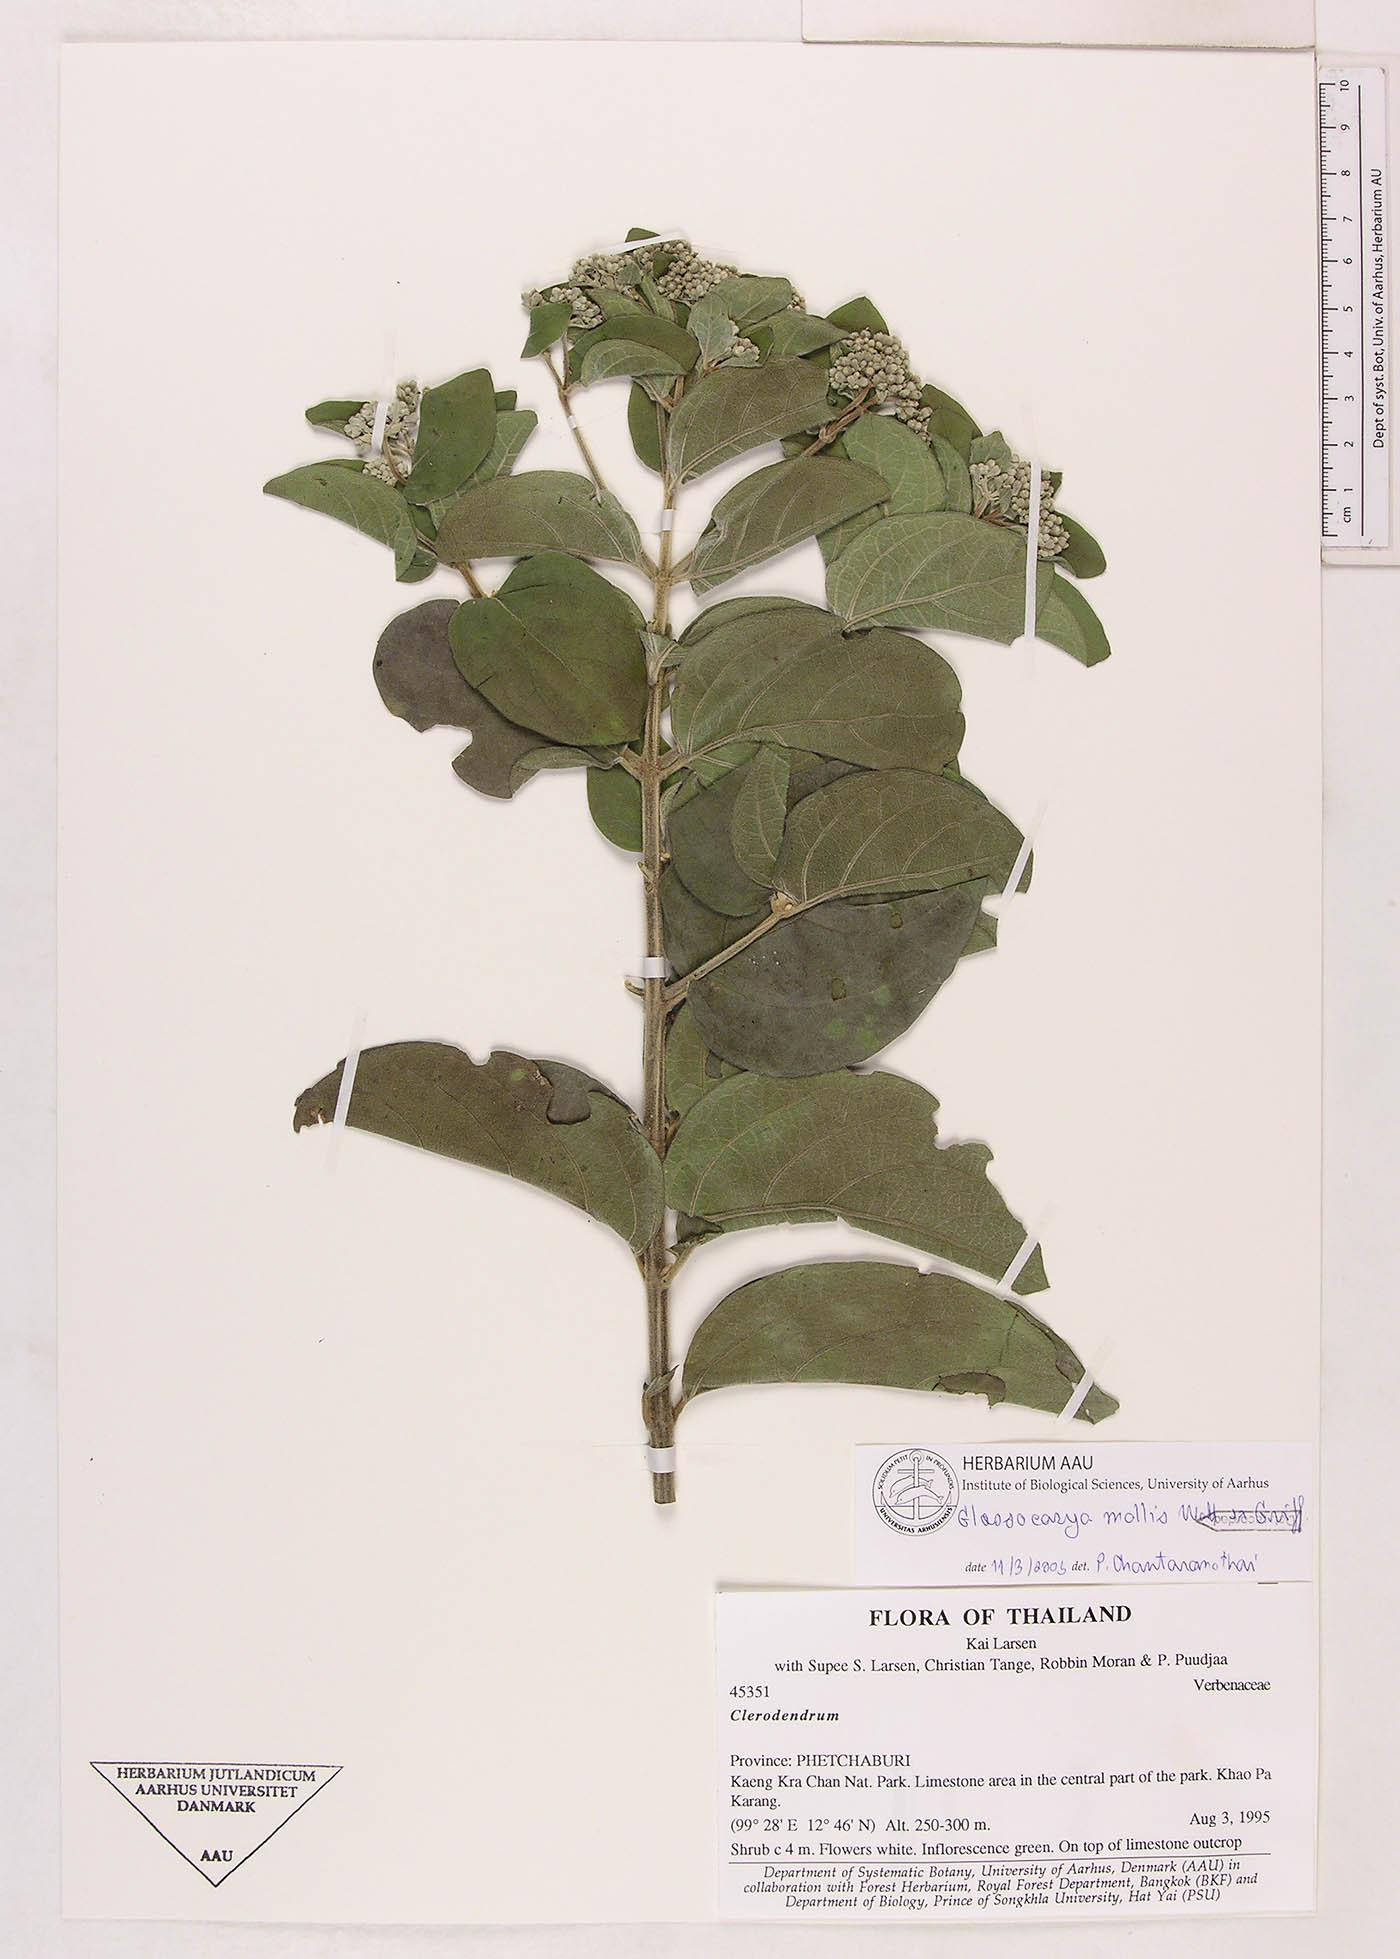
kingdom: Plantae
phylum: Tracheophyta
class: Magnoliopsida
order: Lamiales
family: Lamiaceae
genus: Glossocarya
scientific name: Glossocarya mollis
